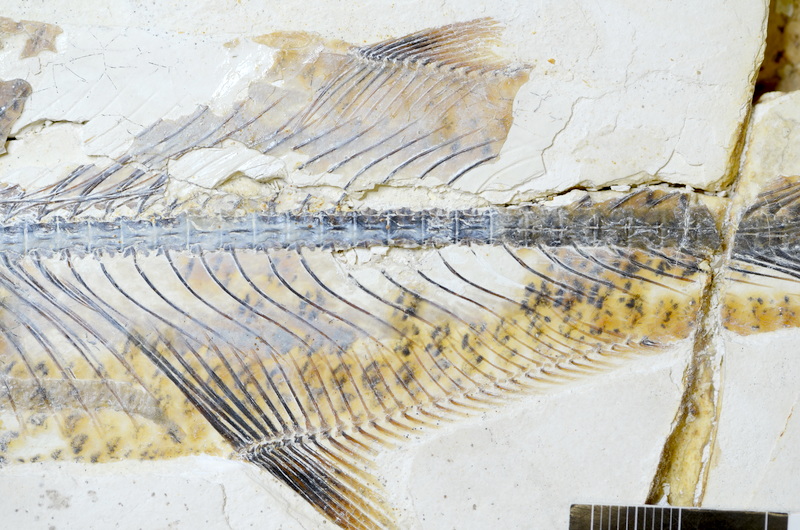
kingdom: Animalia
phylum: Chordata
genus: Thrissops
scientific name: Thrissops formosus
